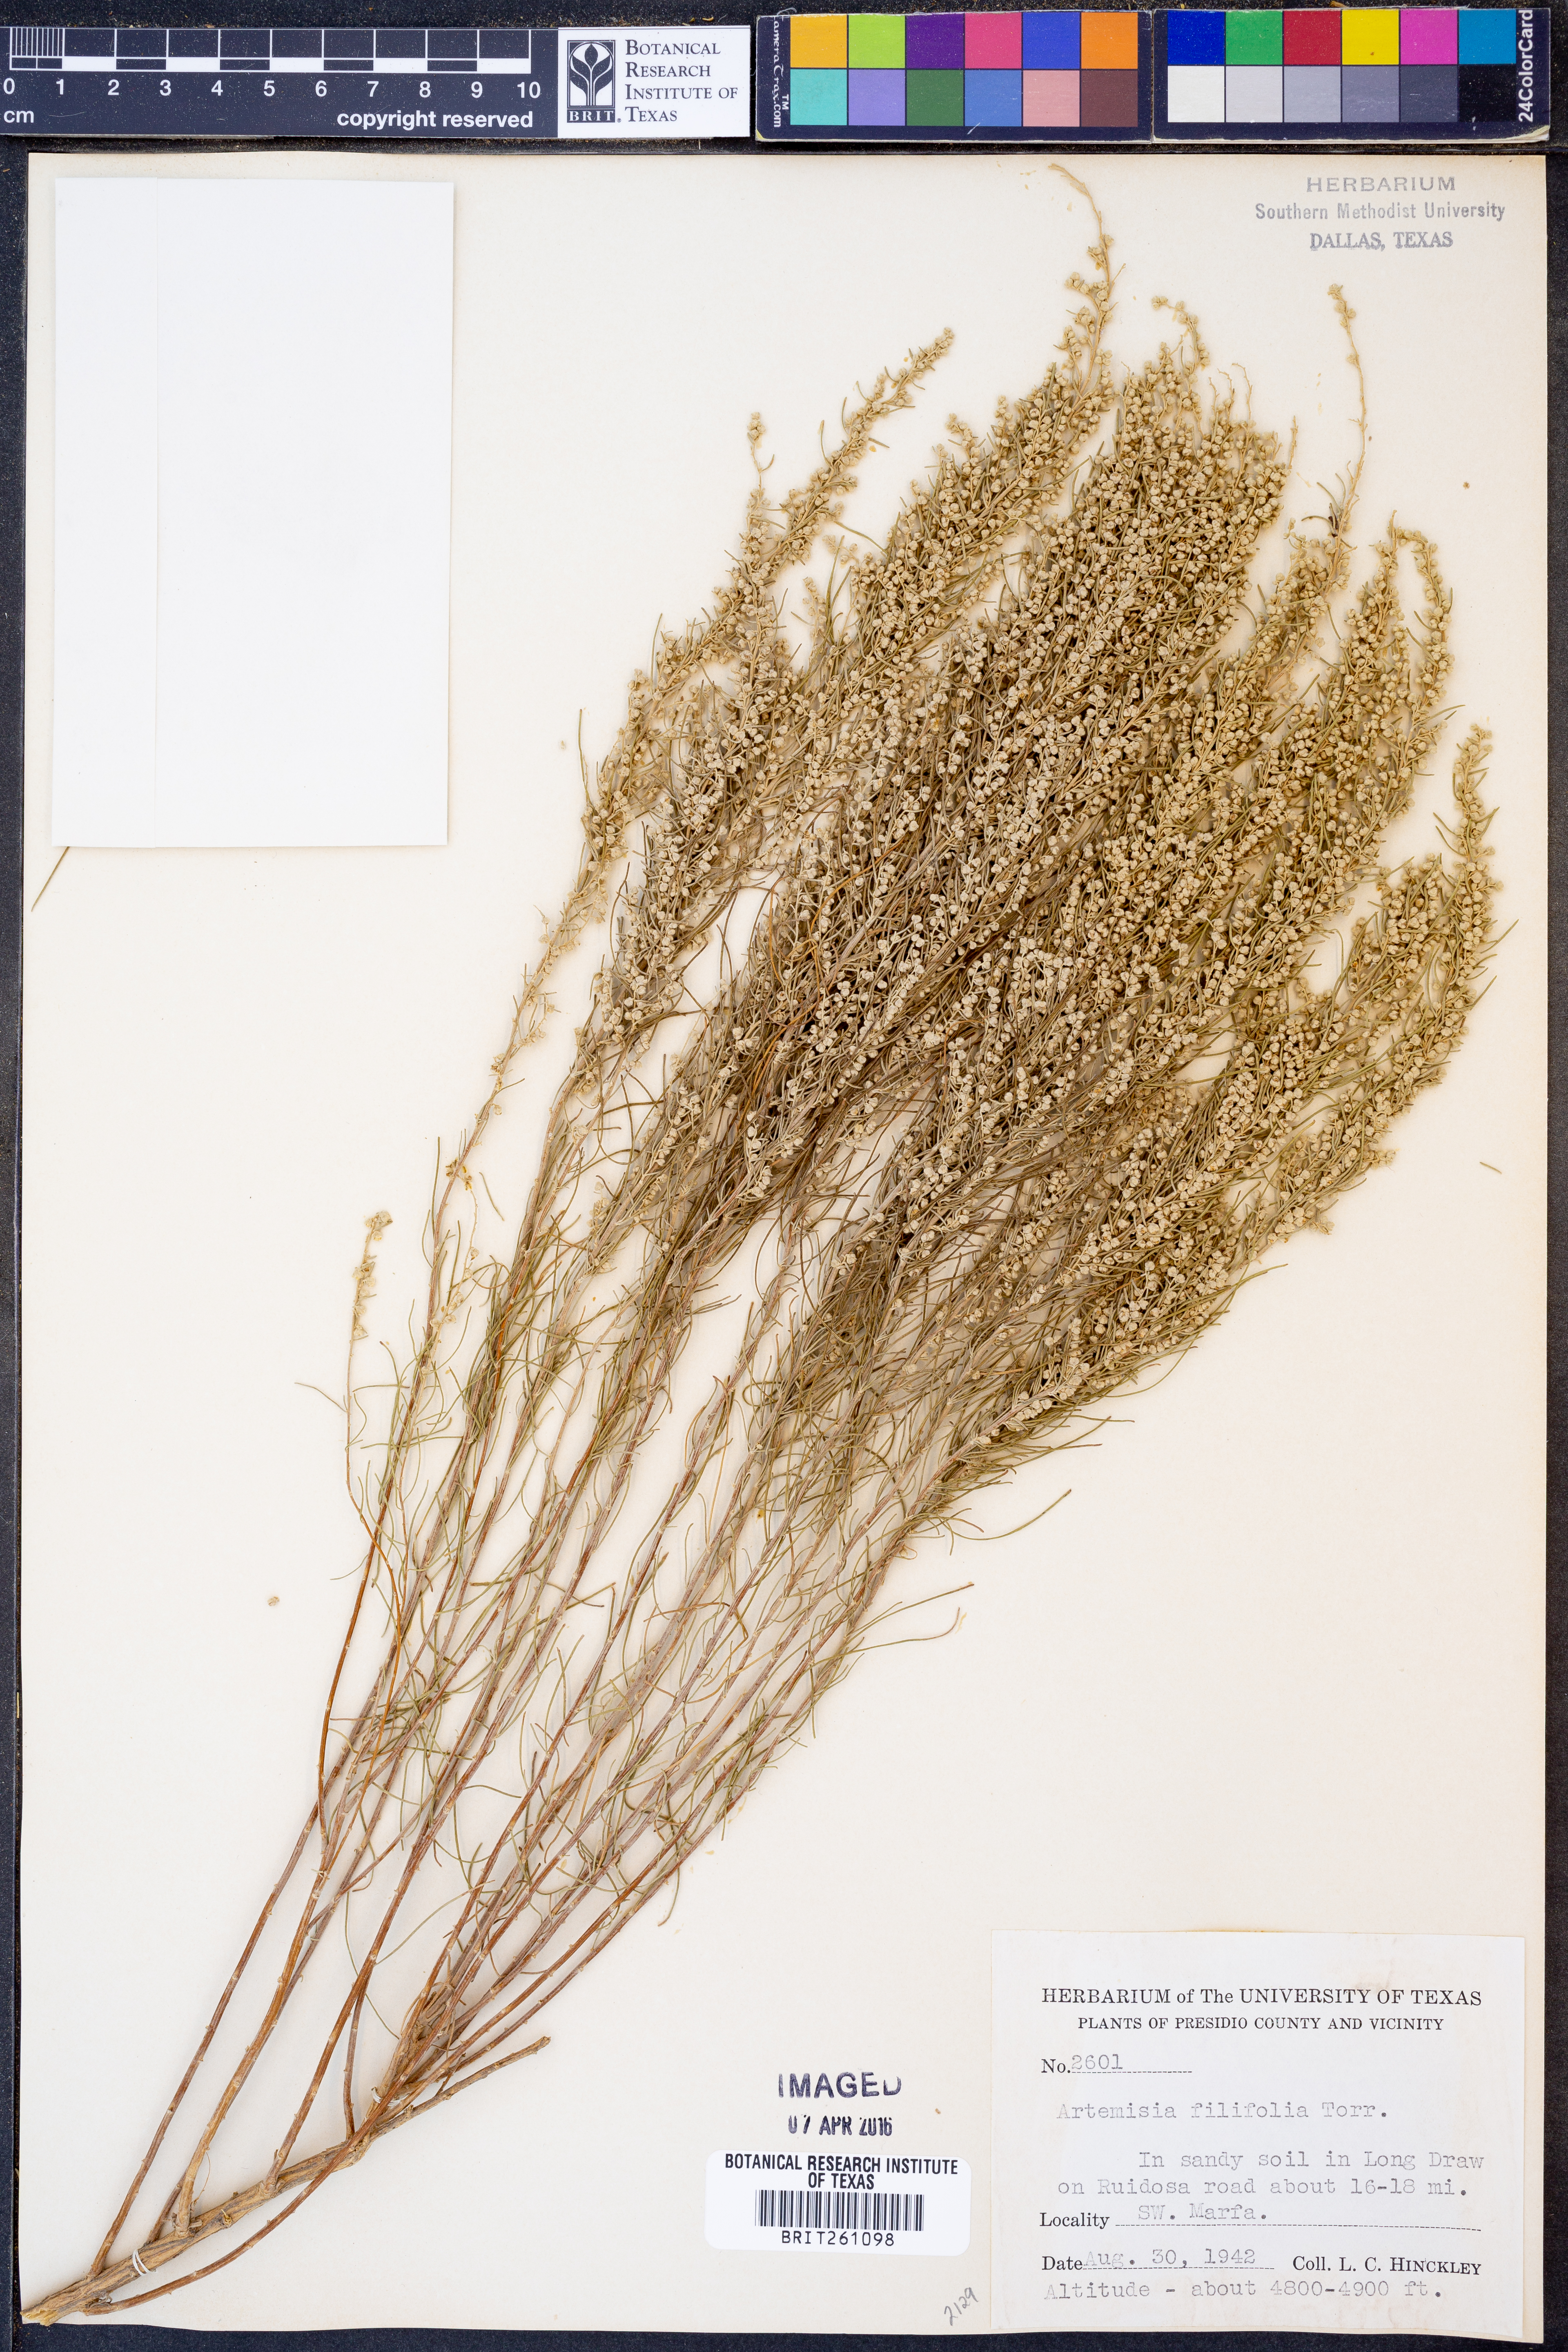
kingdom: Plantae
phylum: Tracheophyta
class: Magnoliopsida
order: Asterales
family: Asteraceae
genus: Artemisia
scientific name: Artemisia filifolia
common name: Sand-sage
